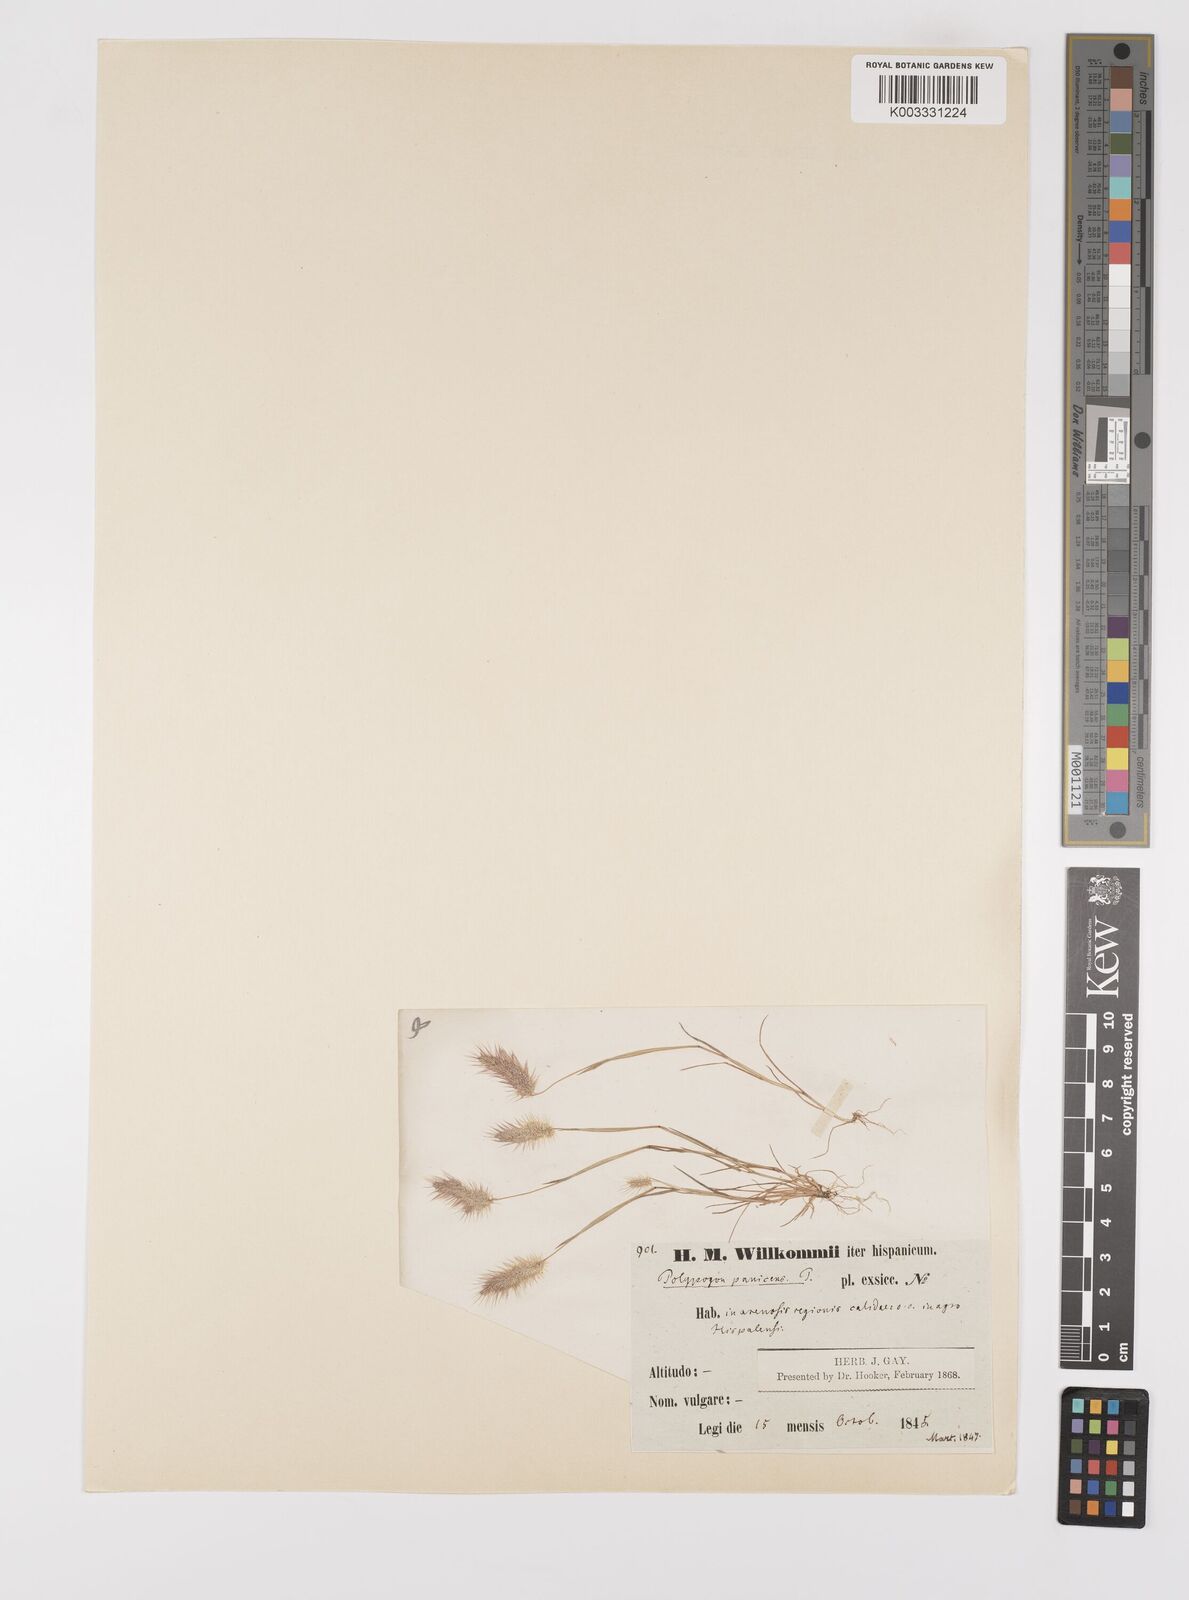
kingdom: Plantae
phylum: Tracheophyta
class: Liliopsida
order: Poales
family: Poaceae
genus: Polypogon
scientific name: Polypogon maritimus
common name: Mediterranean rabbitsfoot grass
